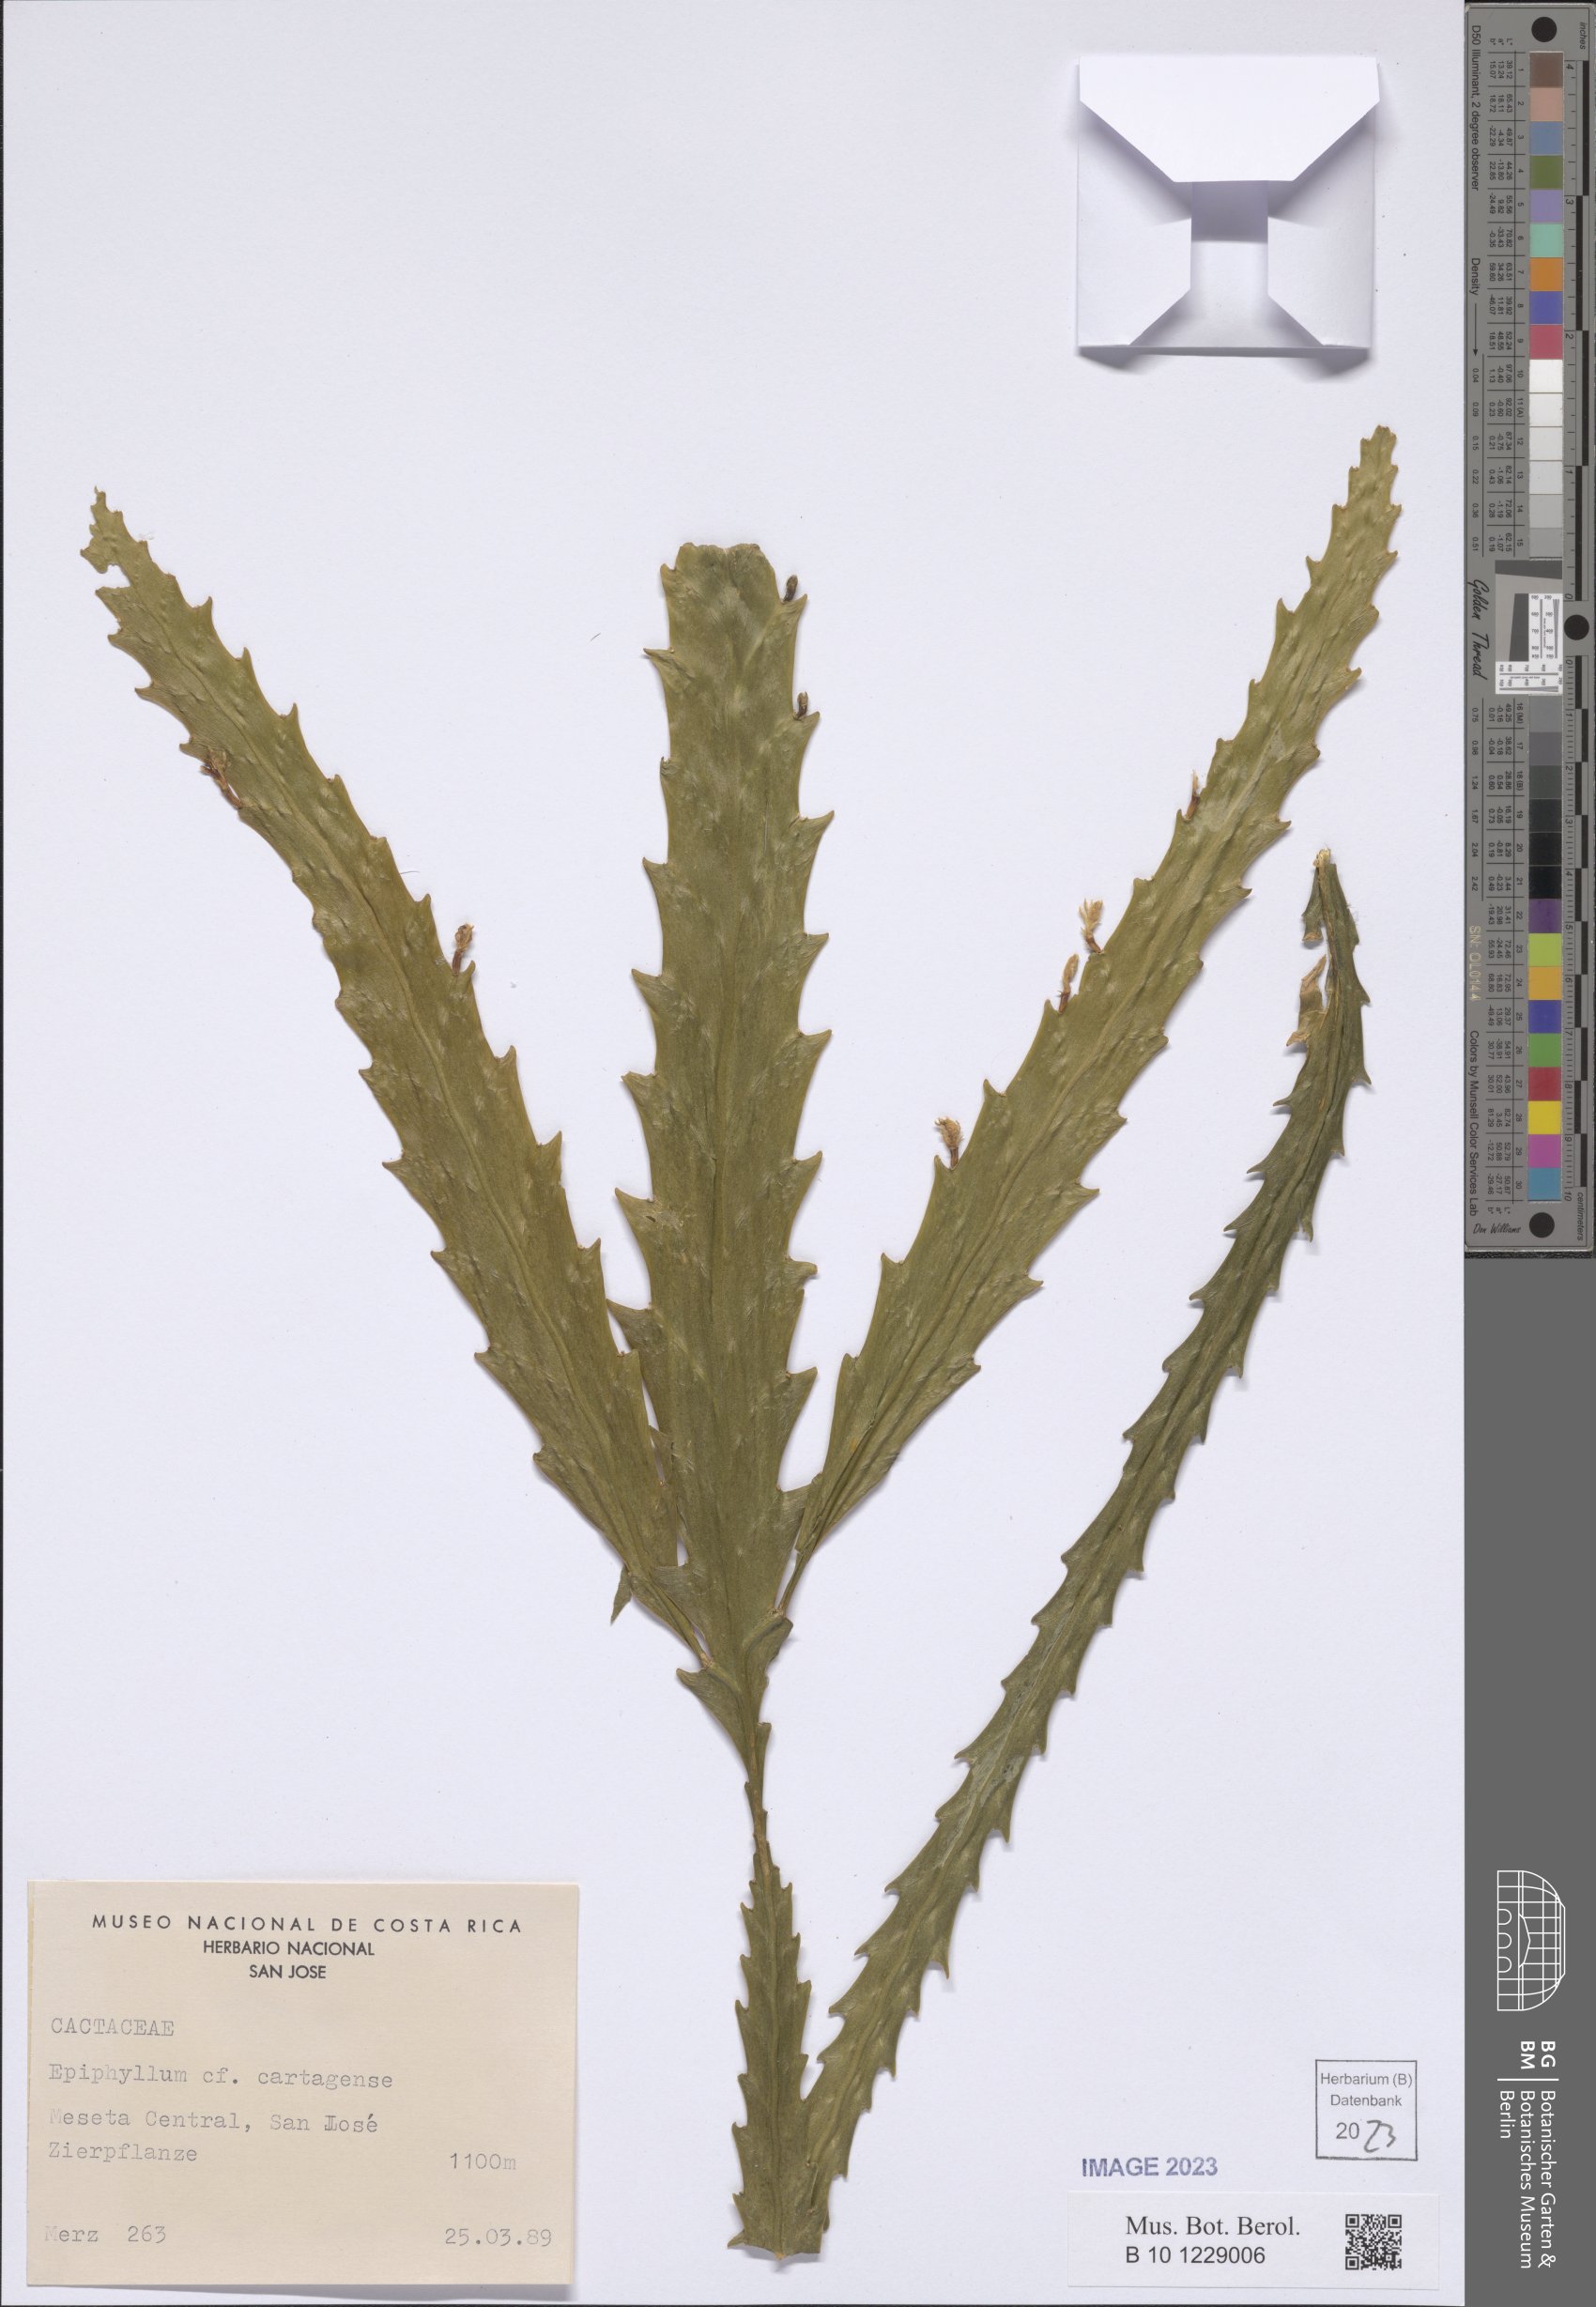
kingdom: Plantae
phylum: Tracheophyta
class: Magnoliopsida
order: Caryophyllales
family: Cactaceae
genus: Epiphyllum
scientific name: Epiphyllum cartagense
